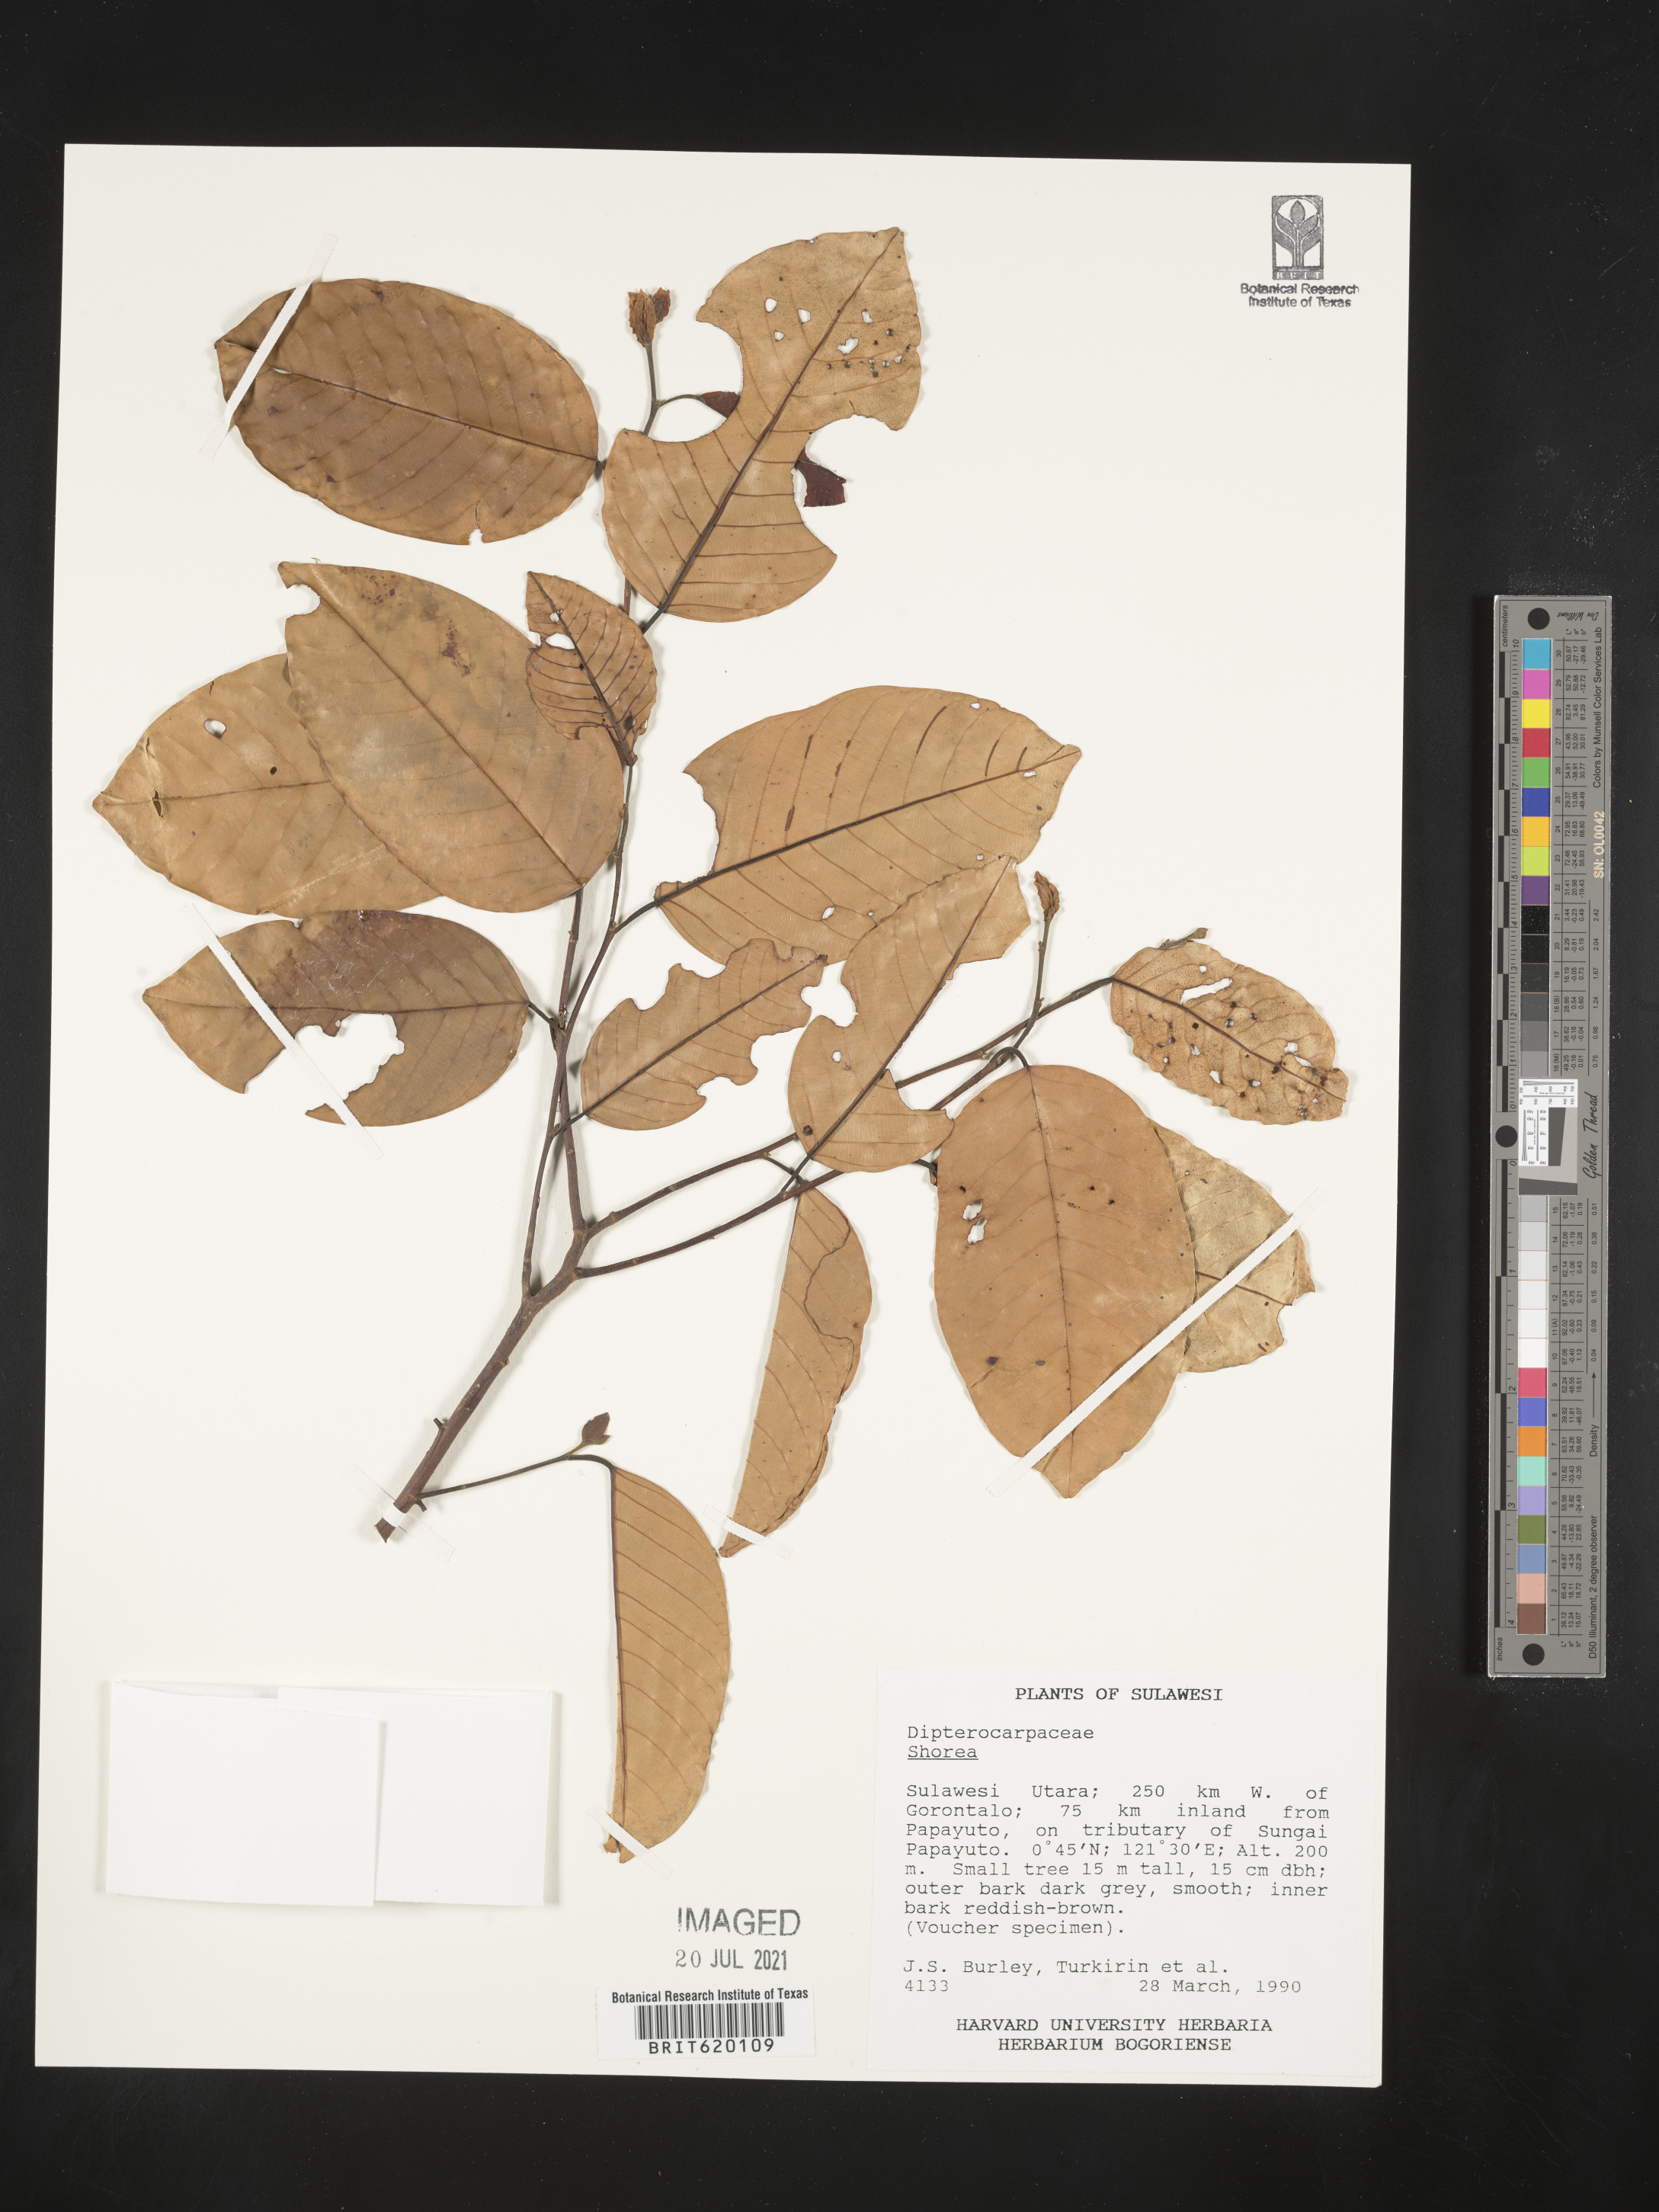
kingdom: Plantae
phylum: Tracheophyta
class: Magnoliopsida
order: Malvales
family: Dipterocarpaceae
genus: Shorea
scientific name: Shorea
